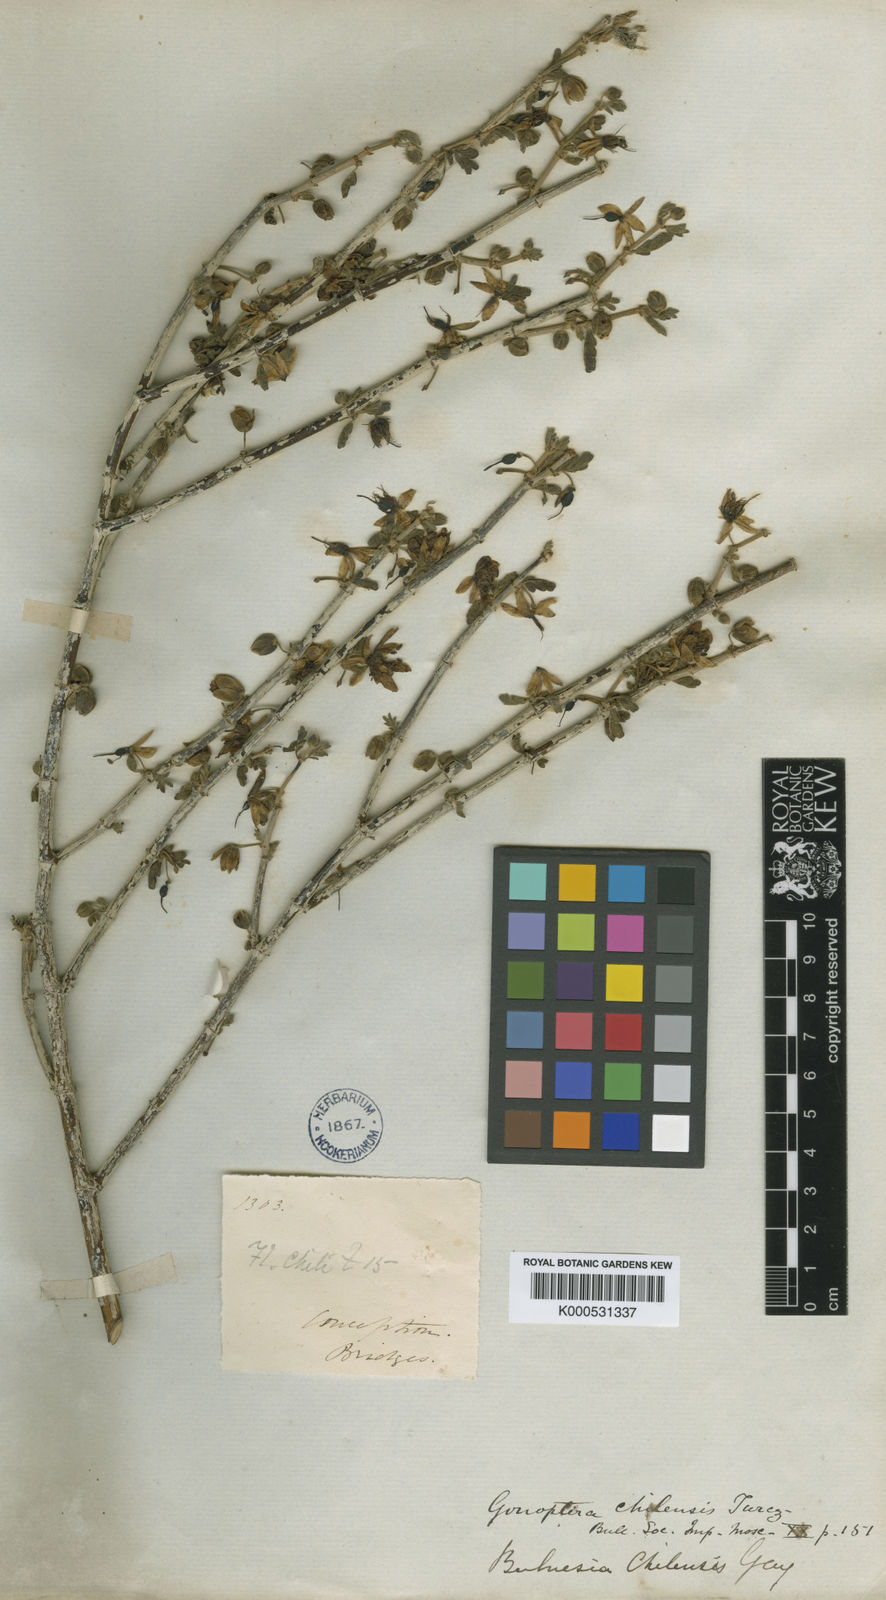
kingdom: Plantae
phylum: Tracheophyta
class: Magnoliopsida
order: Zygophyllales
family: Zygophyllaceae
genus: Bulnesia
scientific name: Bulnesia chilensis
